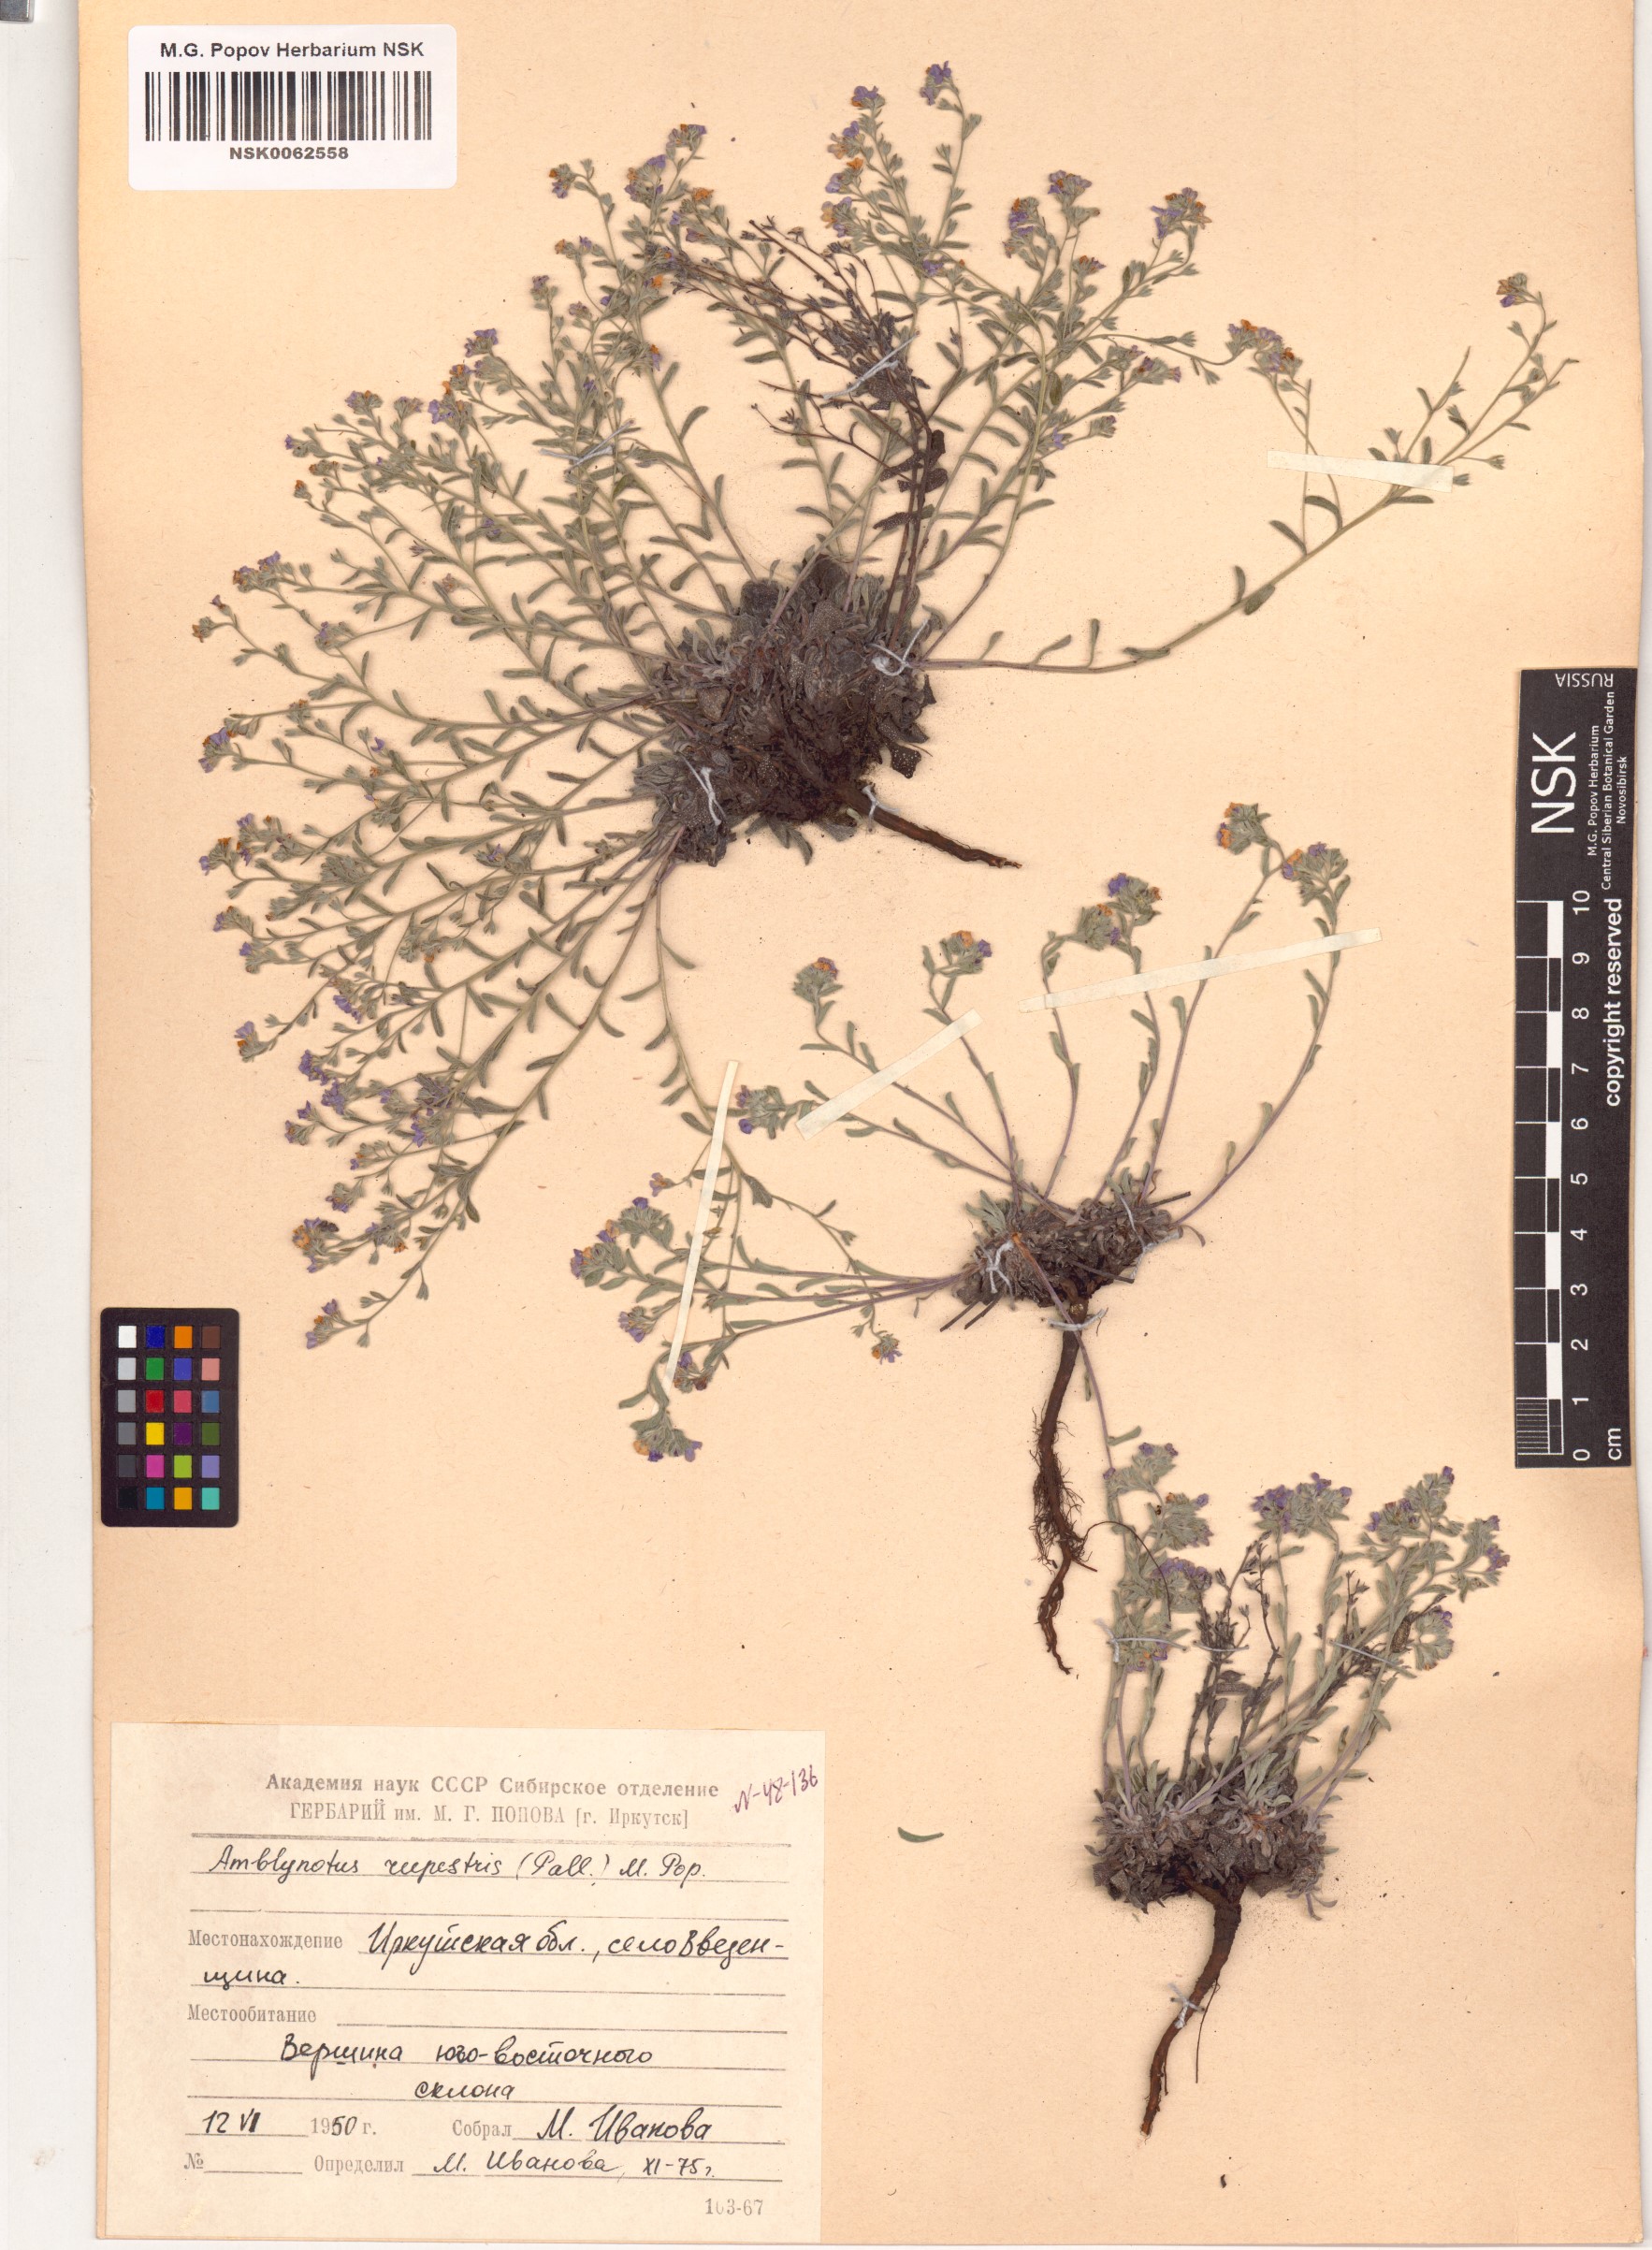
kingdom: Plantae
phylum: Tracheophyta
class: Magnoliopsida
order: Boraginales
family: Boraginaceae
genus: Eritrichium
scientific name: Eritrichium rupestre
